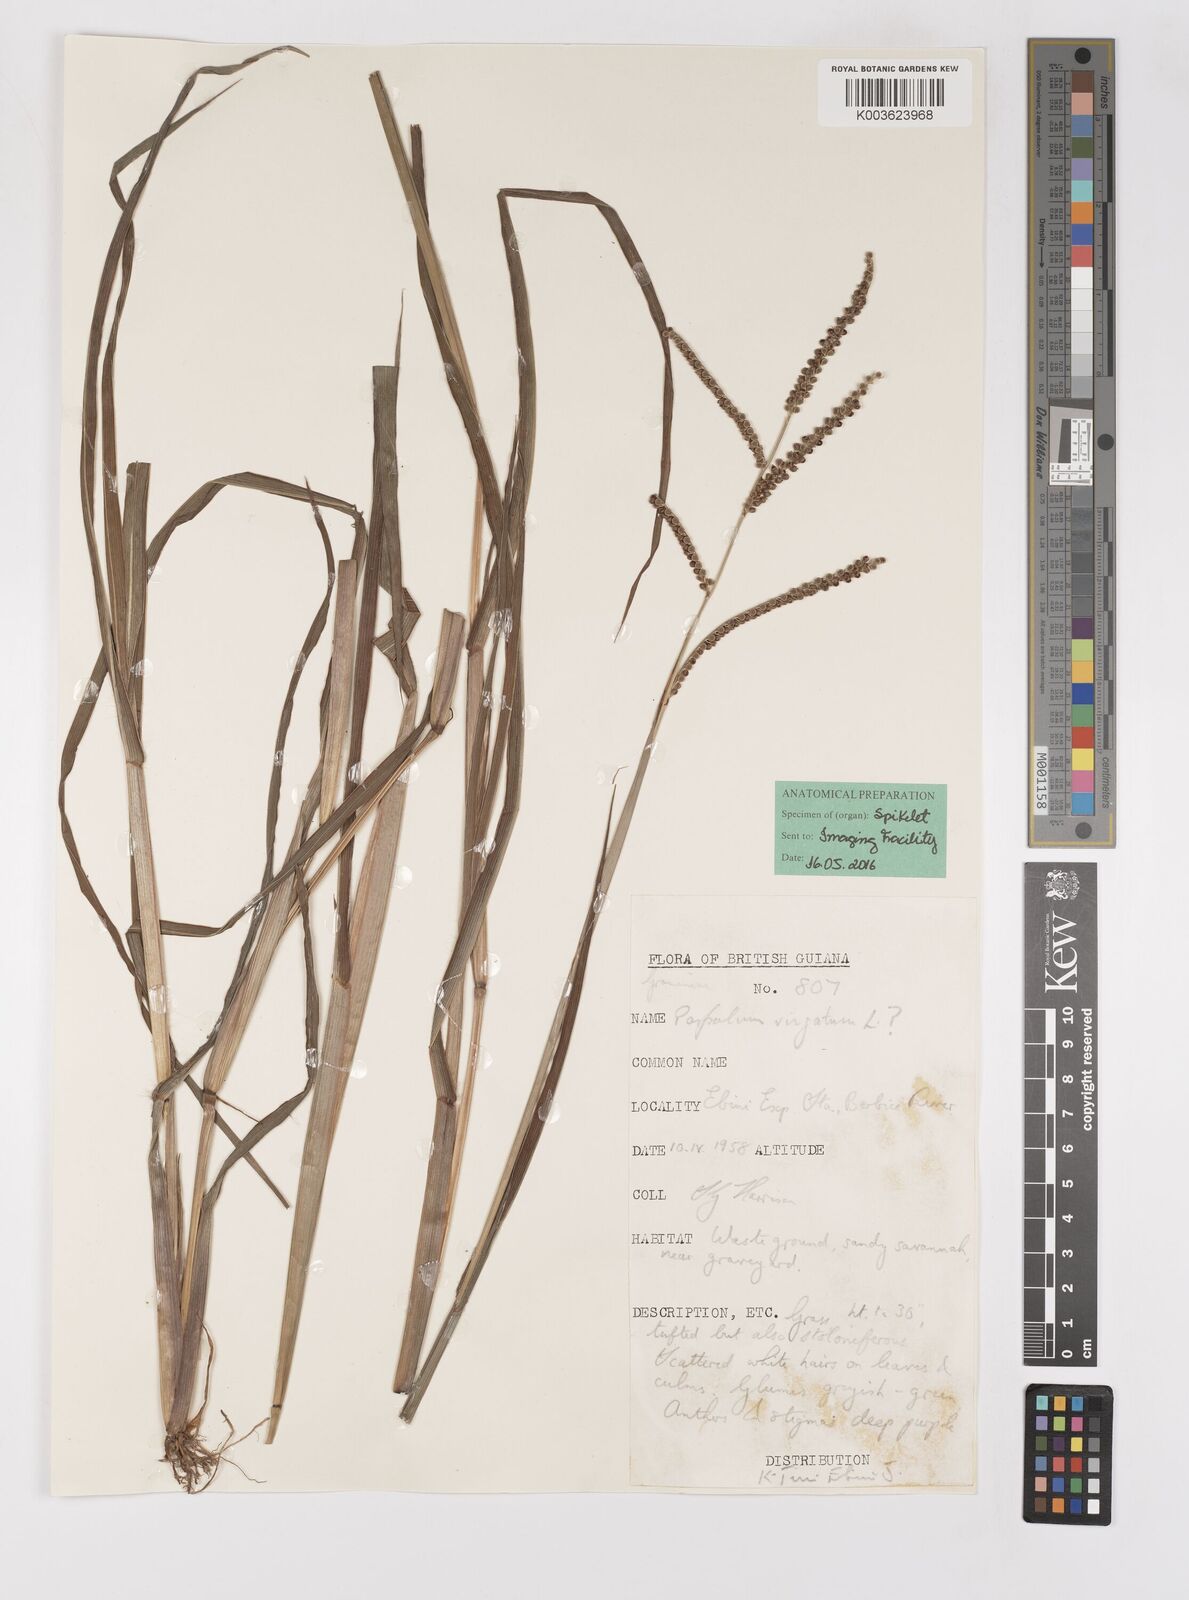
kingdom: Plantae
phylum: Tracheophyta
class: Liliopsida
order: Poales
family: Poaceae
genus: Paspalum
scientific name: Paspalum convexum
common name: Latin american crowngrass
